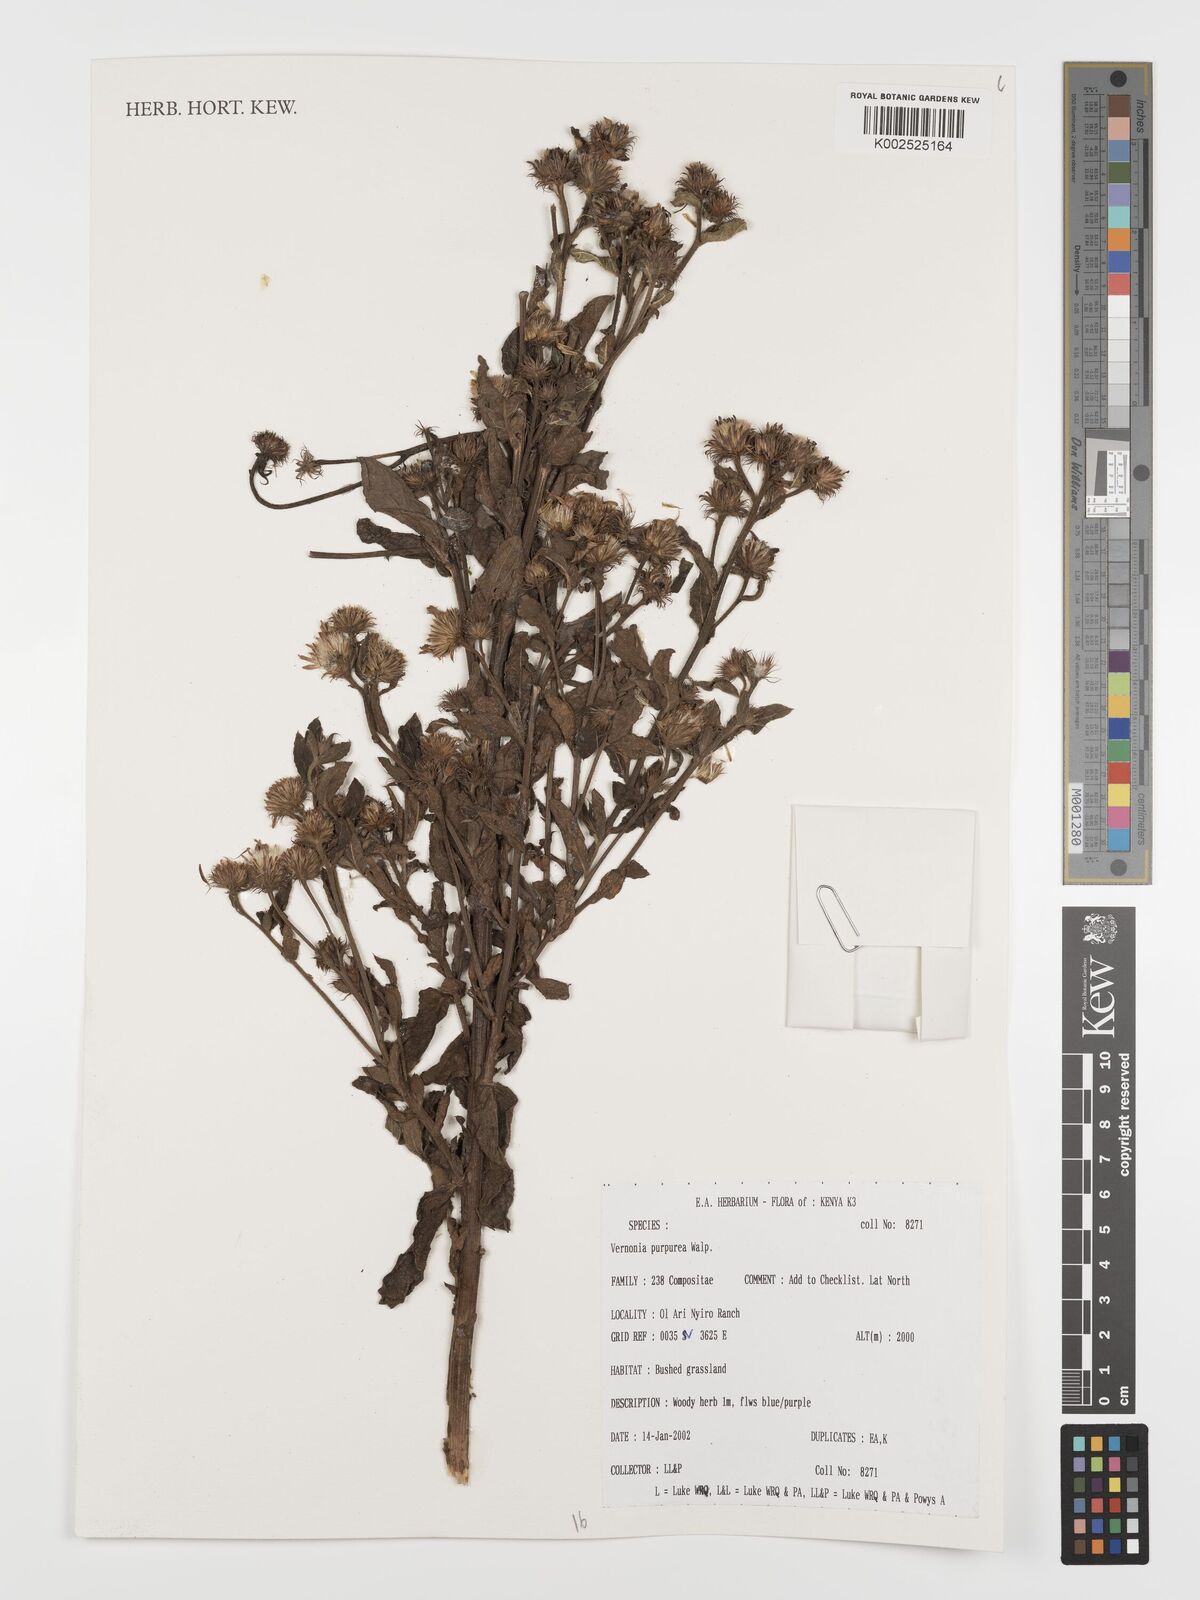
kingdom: Plantae
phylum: Tracheophyta
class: Magnoliopsida
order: Asterales
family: Asteraceae
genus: Nothovernonia
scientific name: Nothovernonia purpurea
